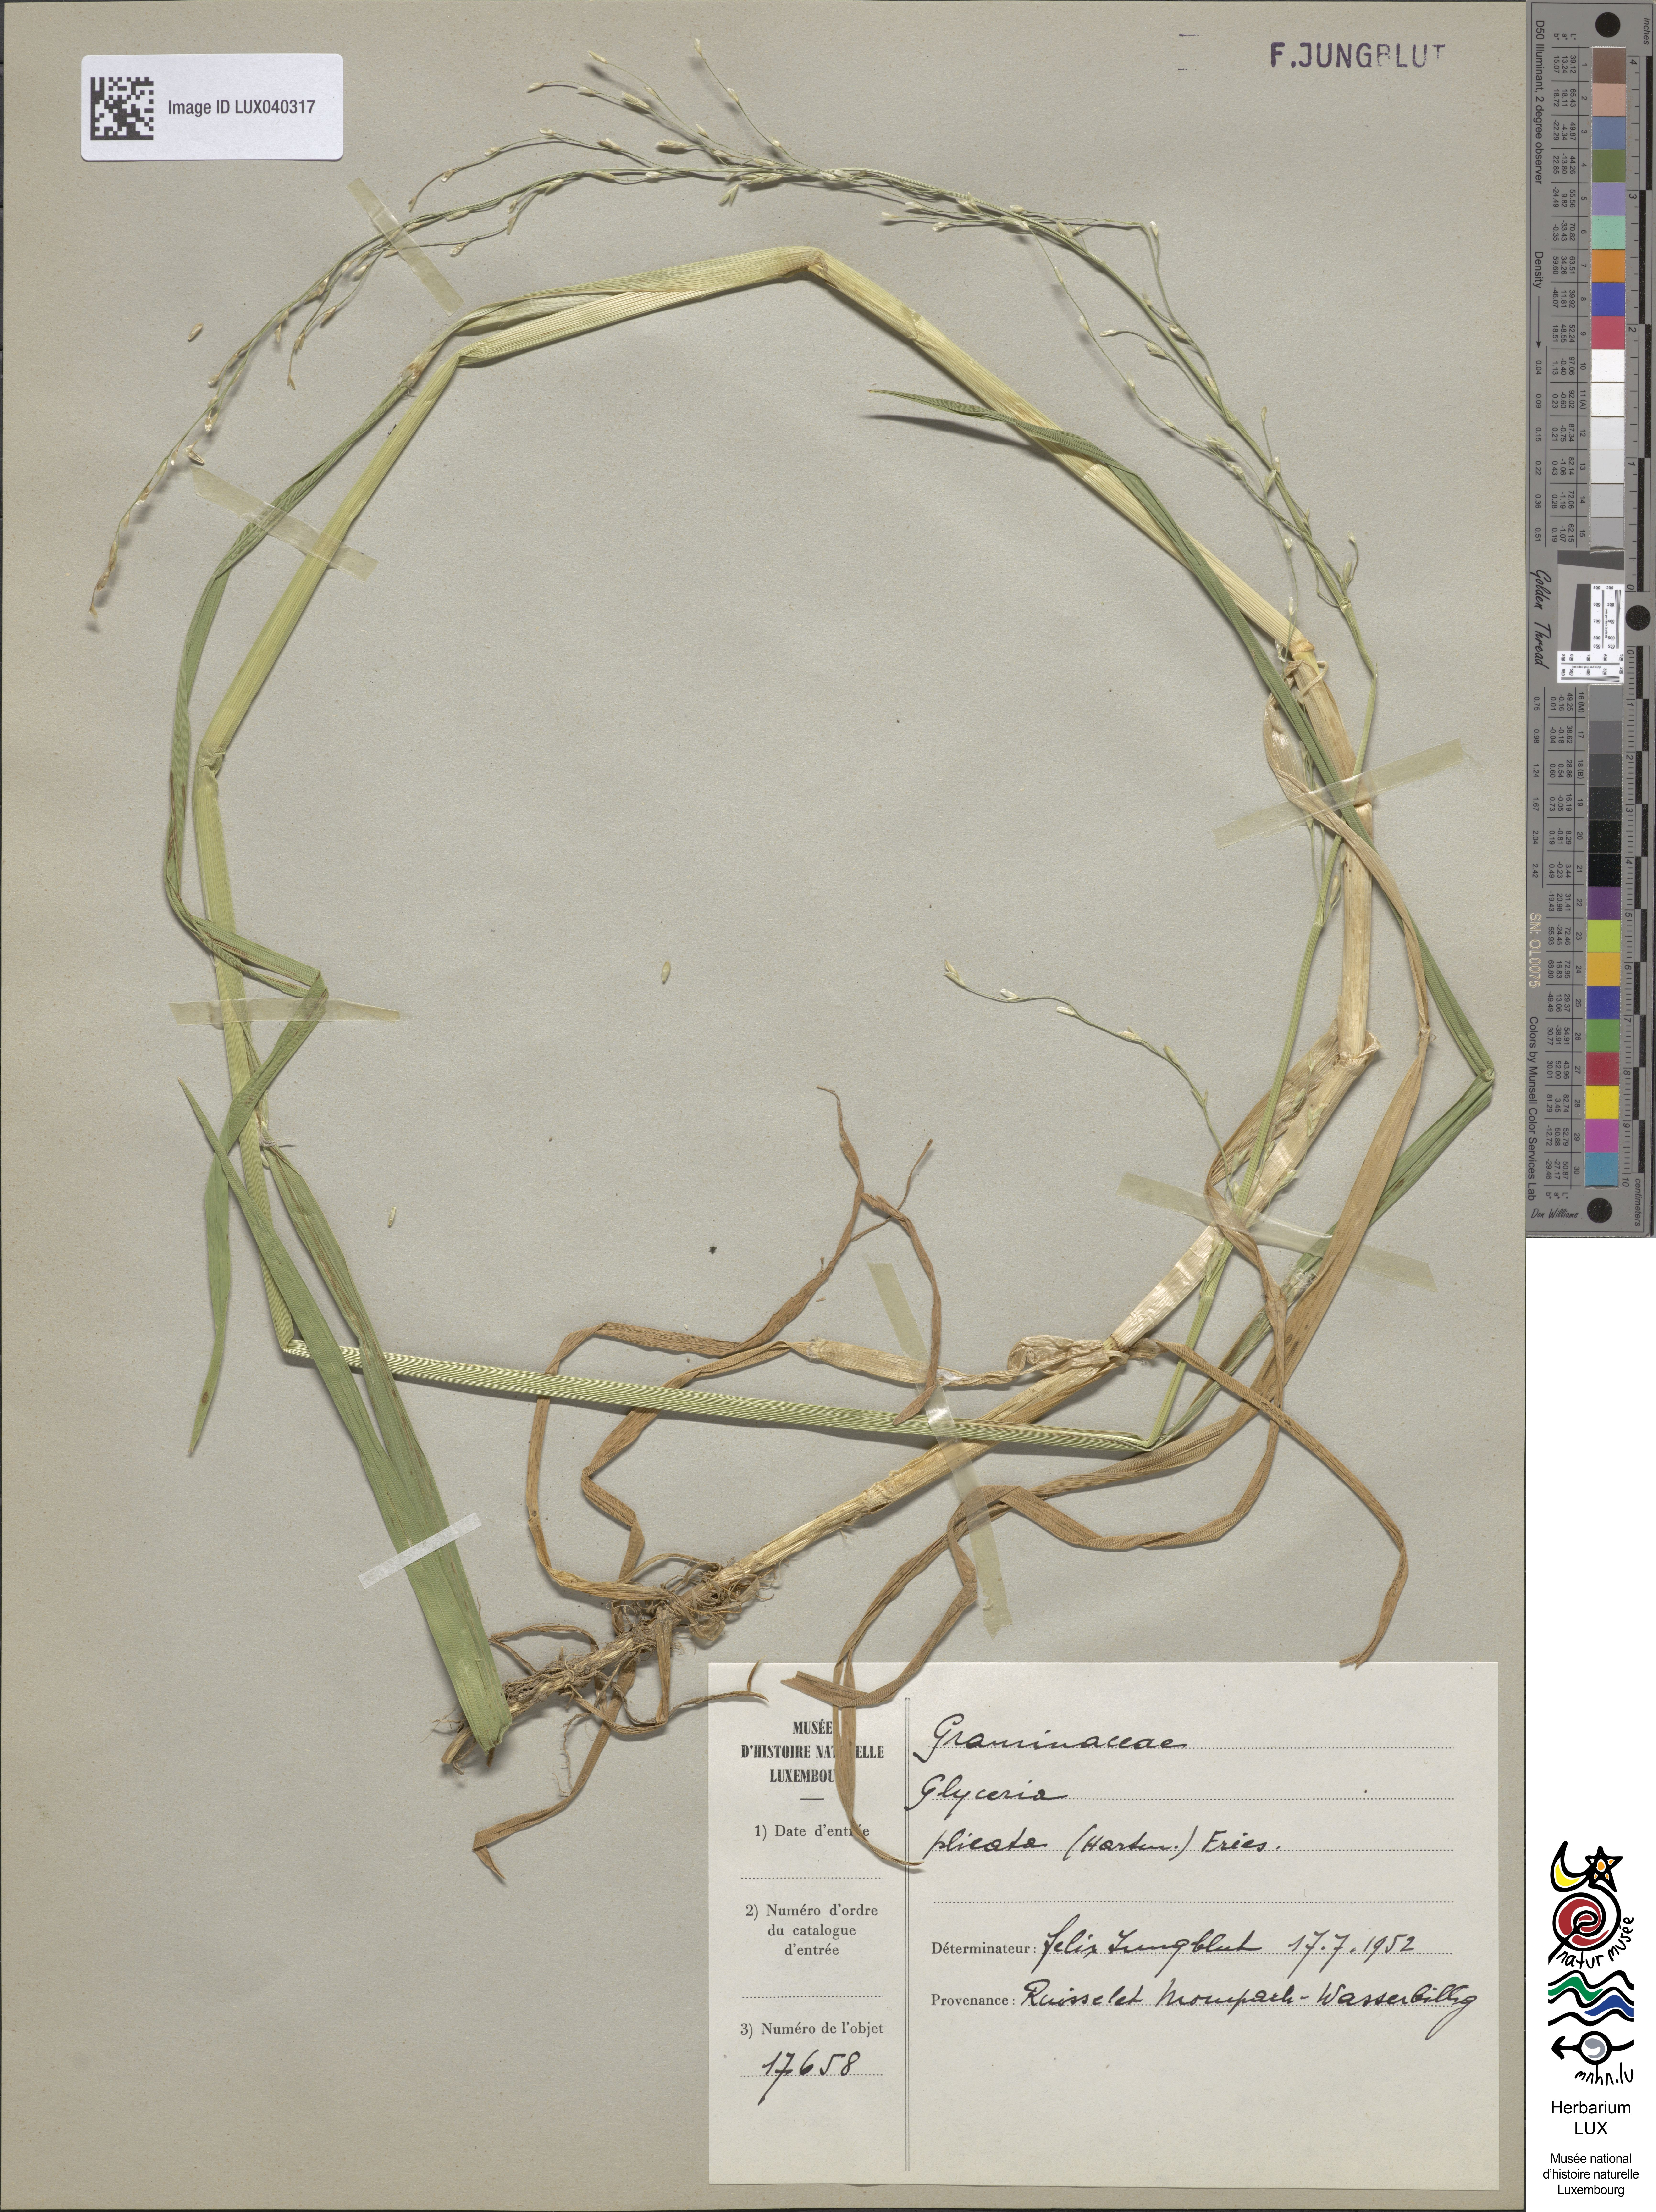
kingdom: Plantae
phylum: Tracheophyta
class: Liliopsida
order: Poales
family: Poaceae
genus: Glyceria
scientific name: Glyceria notata
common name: Plicate sweet-grass
